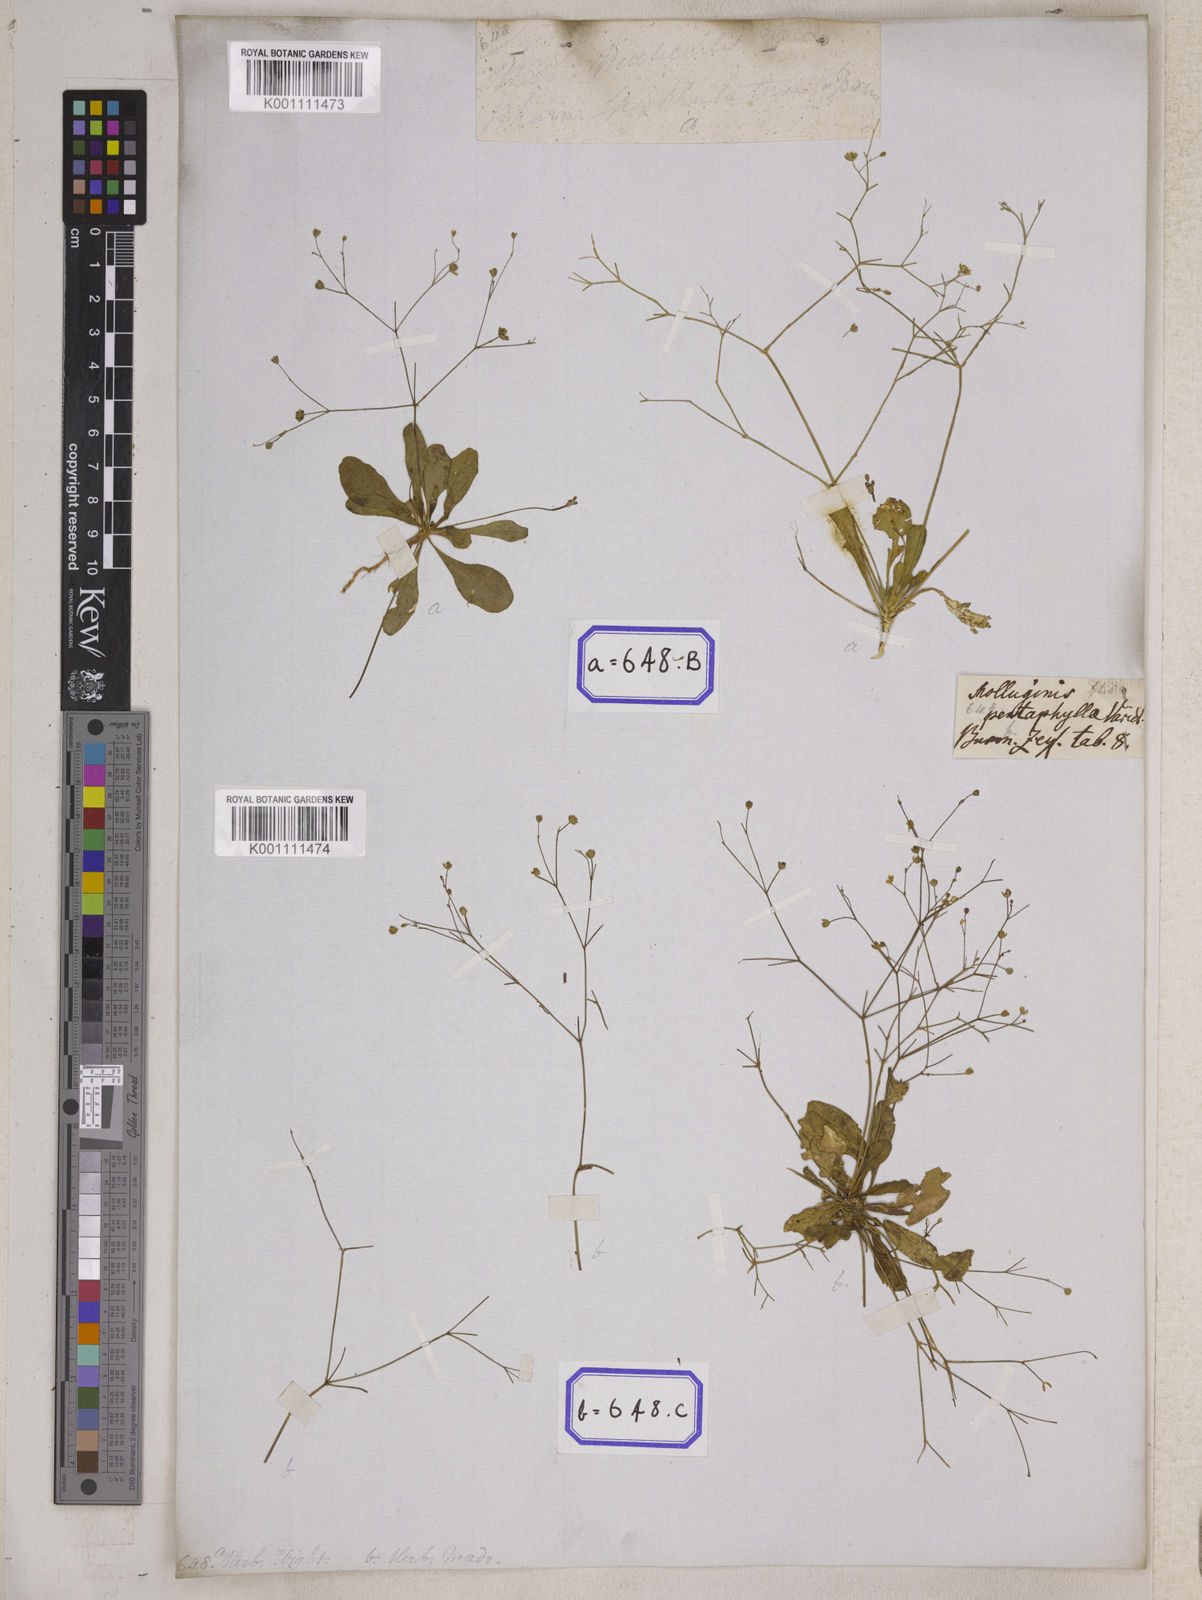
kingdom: Plantae
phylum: Tracheophyta
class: Magnoliopsida
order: Caryophyllales
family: Molluginaceae
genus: Paramollugo
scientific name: Paramollugo nudicaulis
